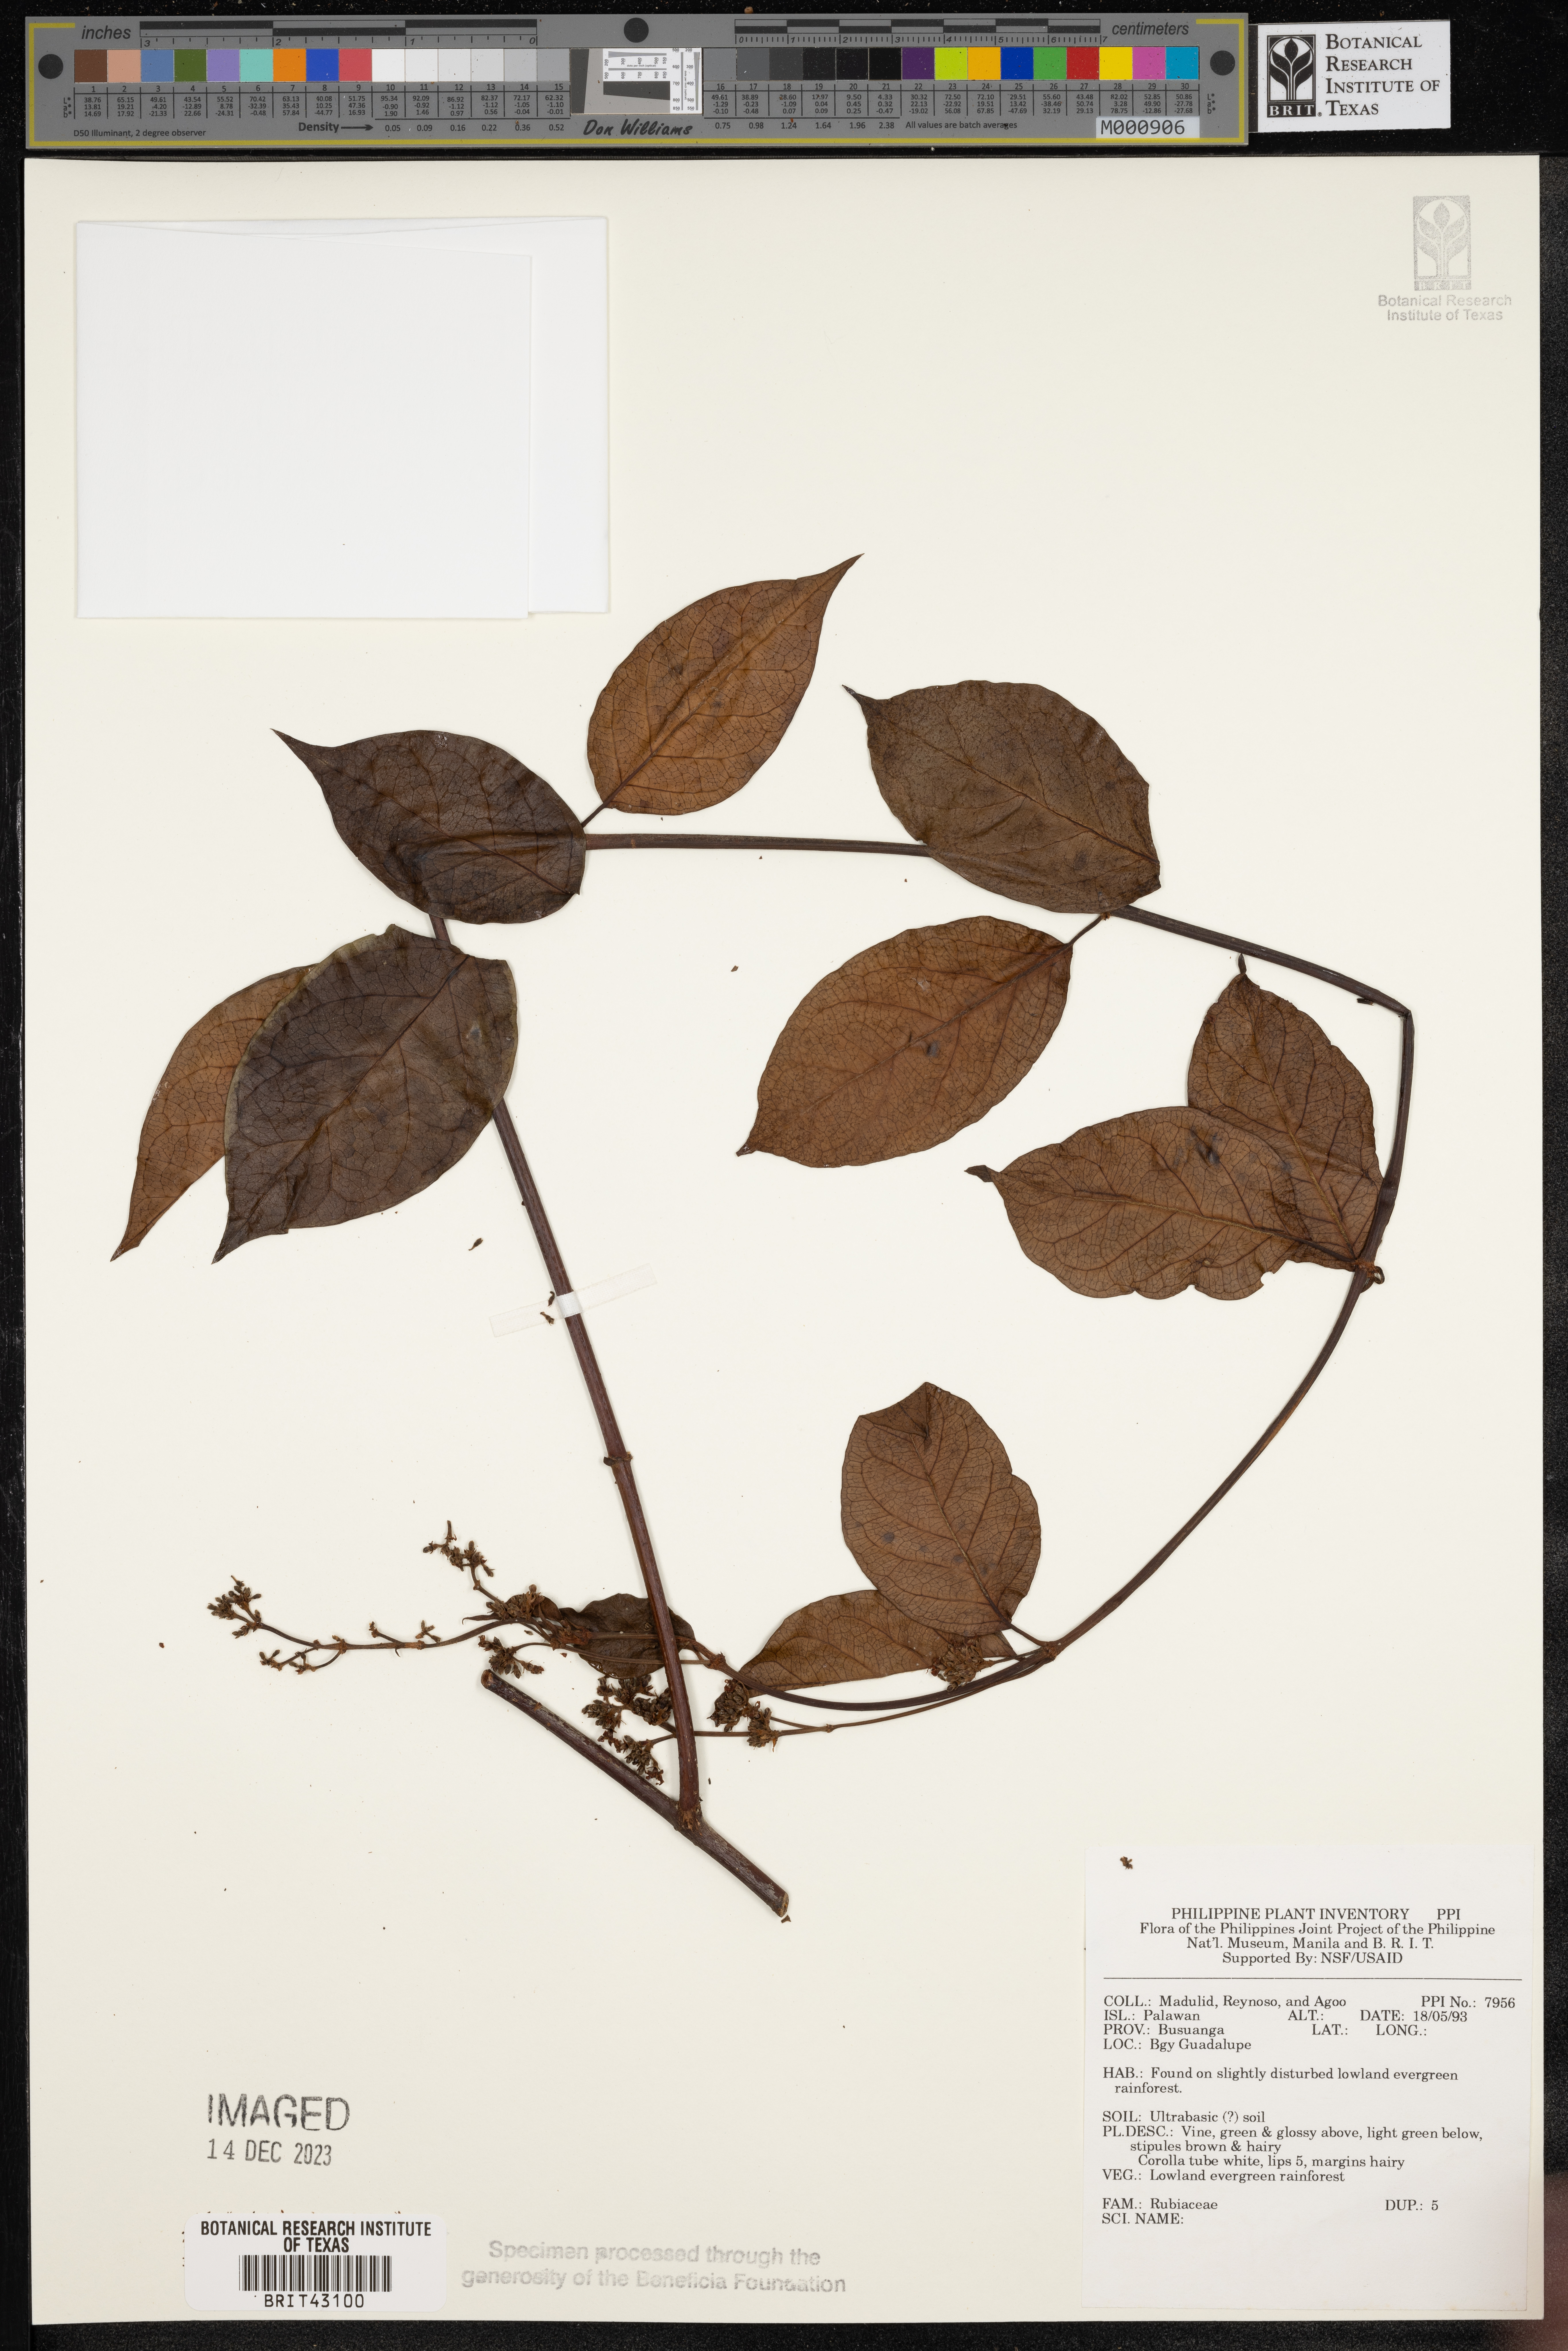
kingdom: Plantae
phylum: Tracheophyta
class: Magnoliopsida
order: Gentianales
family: Rubiaceae
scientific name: Rubiaceae
